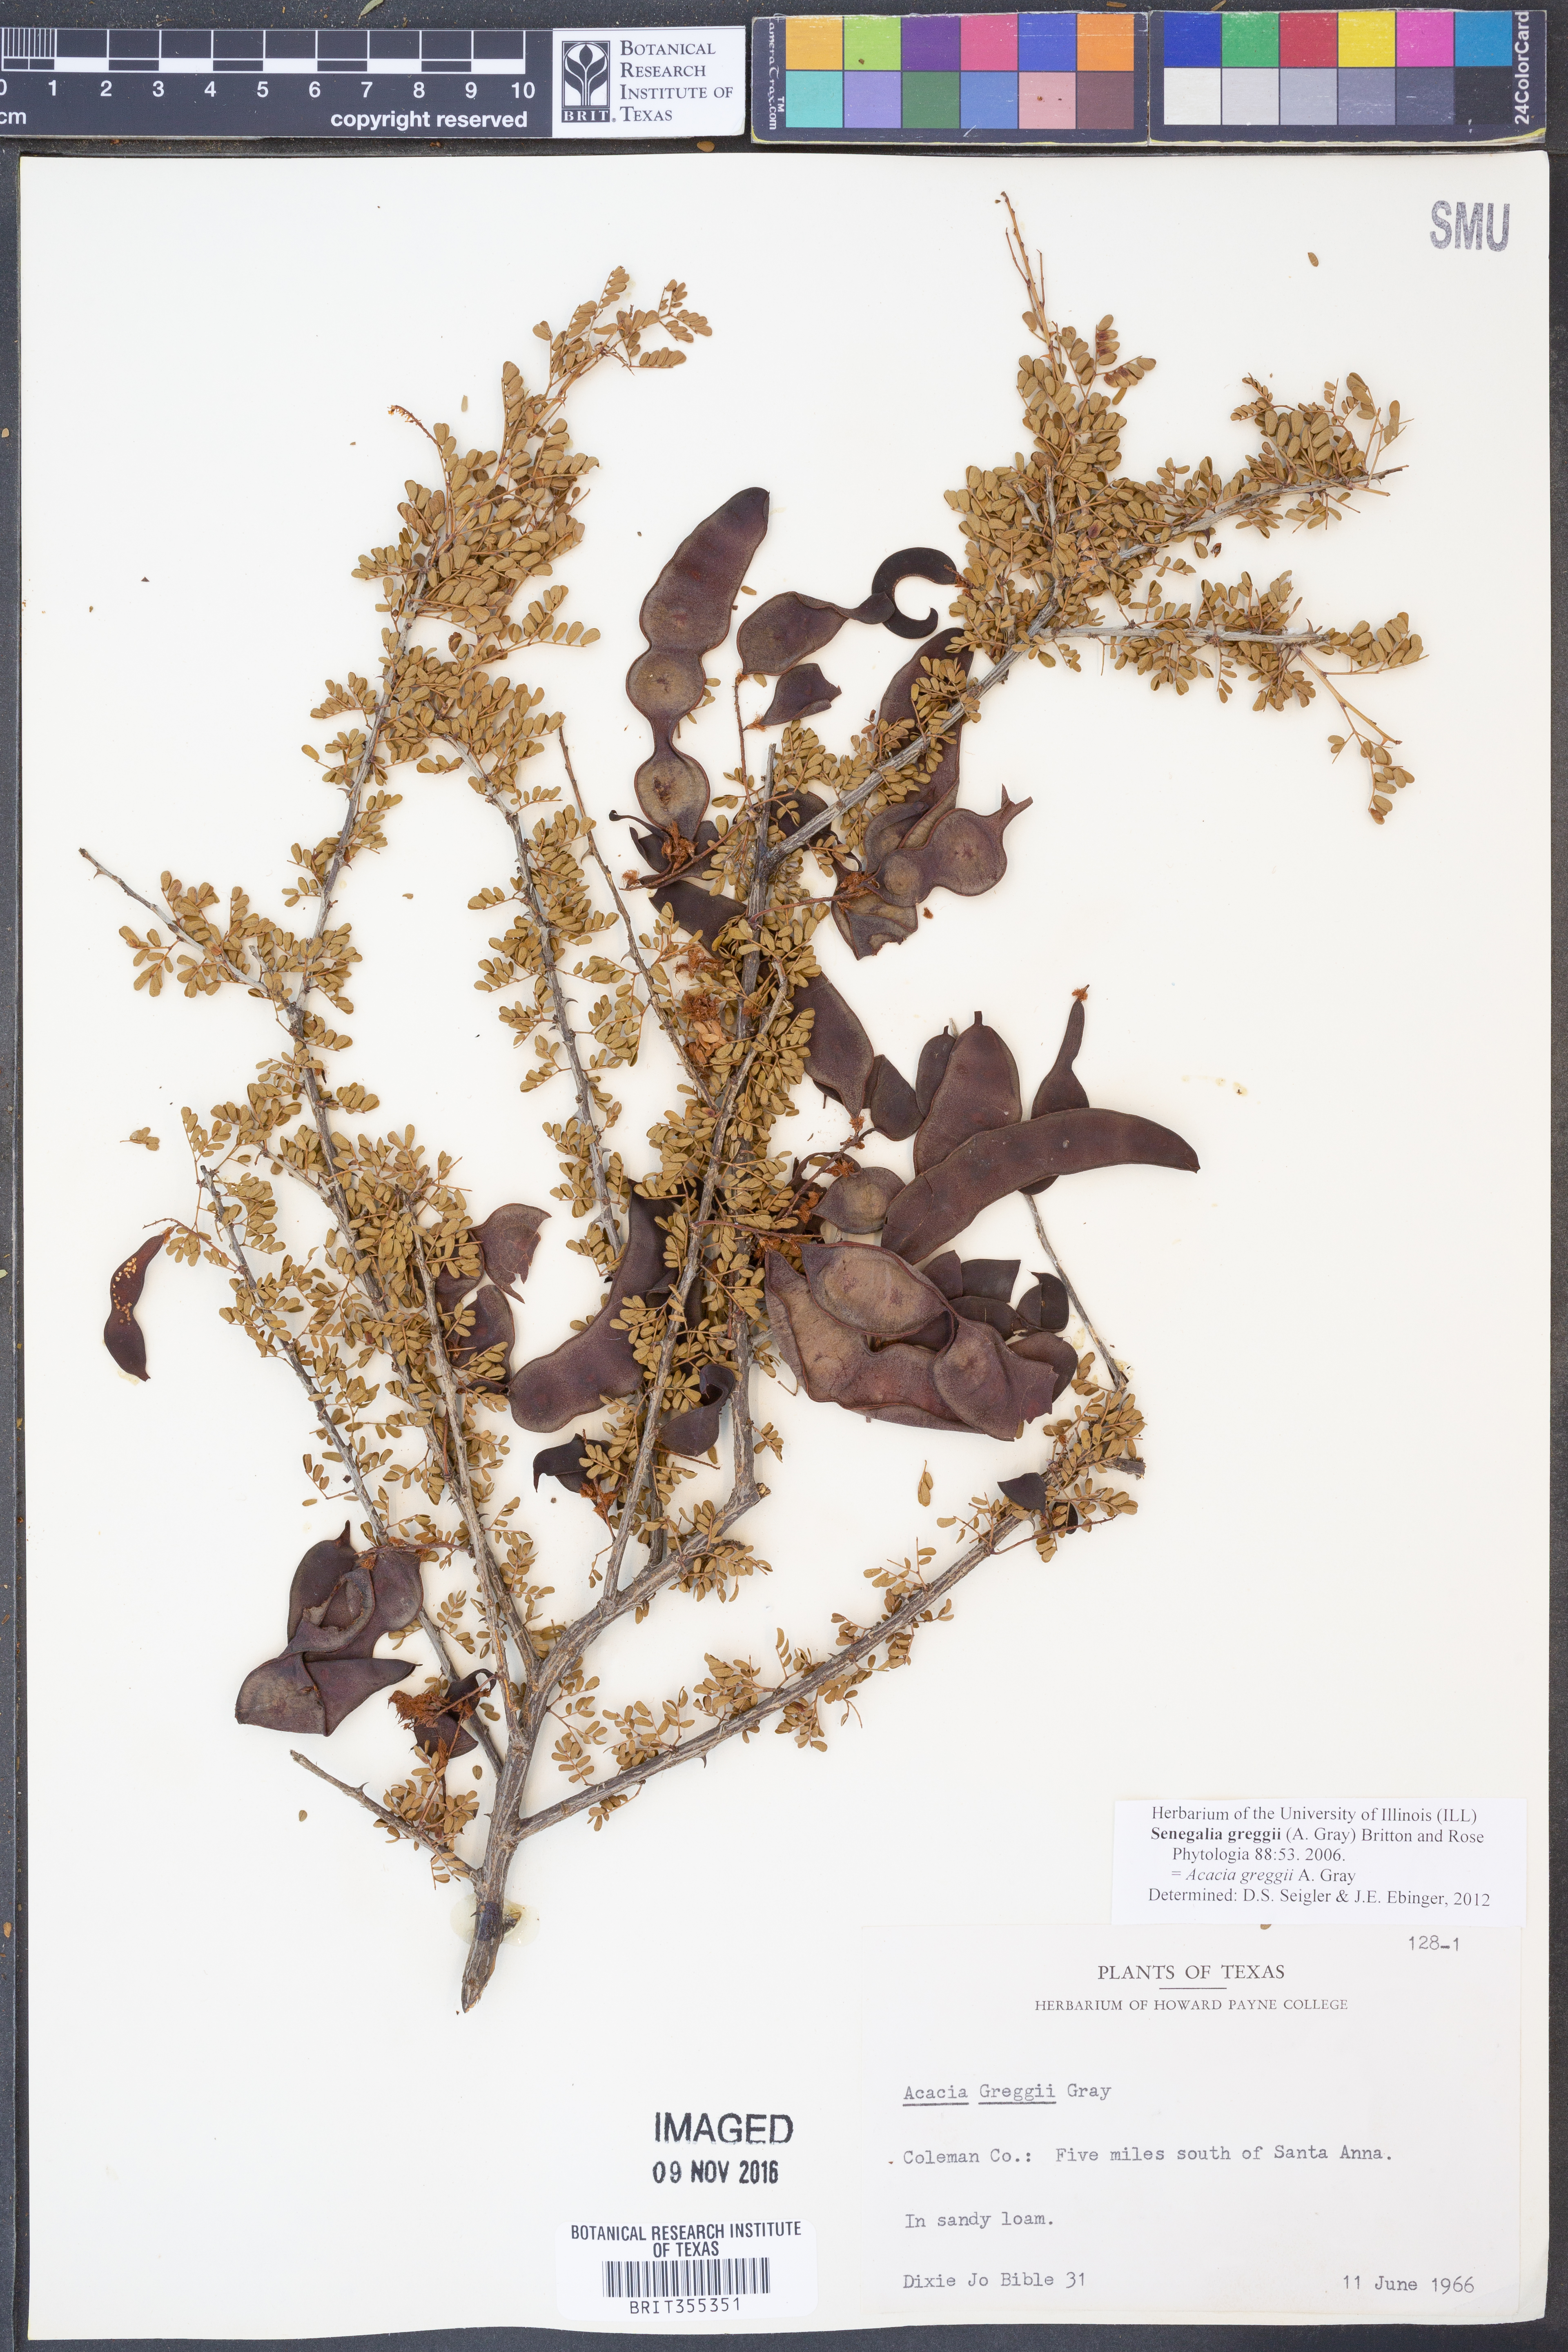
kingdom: Plantae
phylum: Tracheophyta
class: Magnoliopsida
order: Fabales
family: Fabaceae
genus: Senegalia
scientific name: Senegalia greggii
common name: Texas-mimosa
